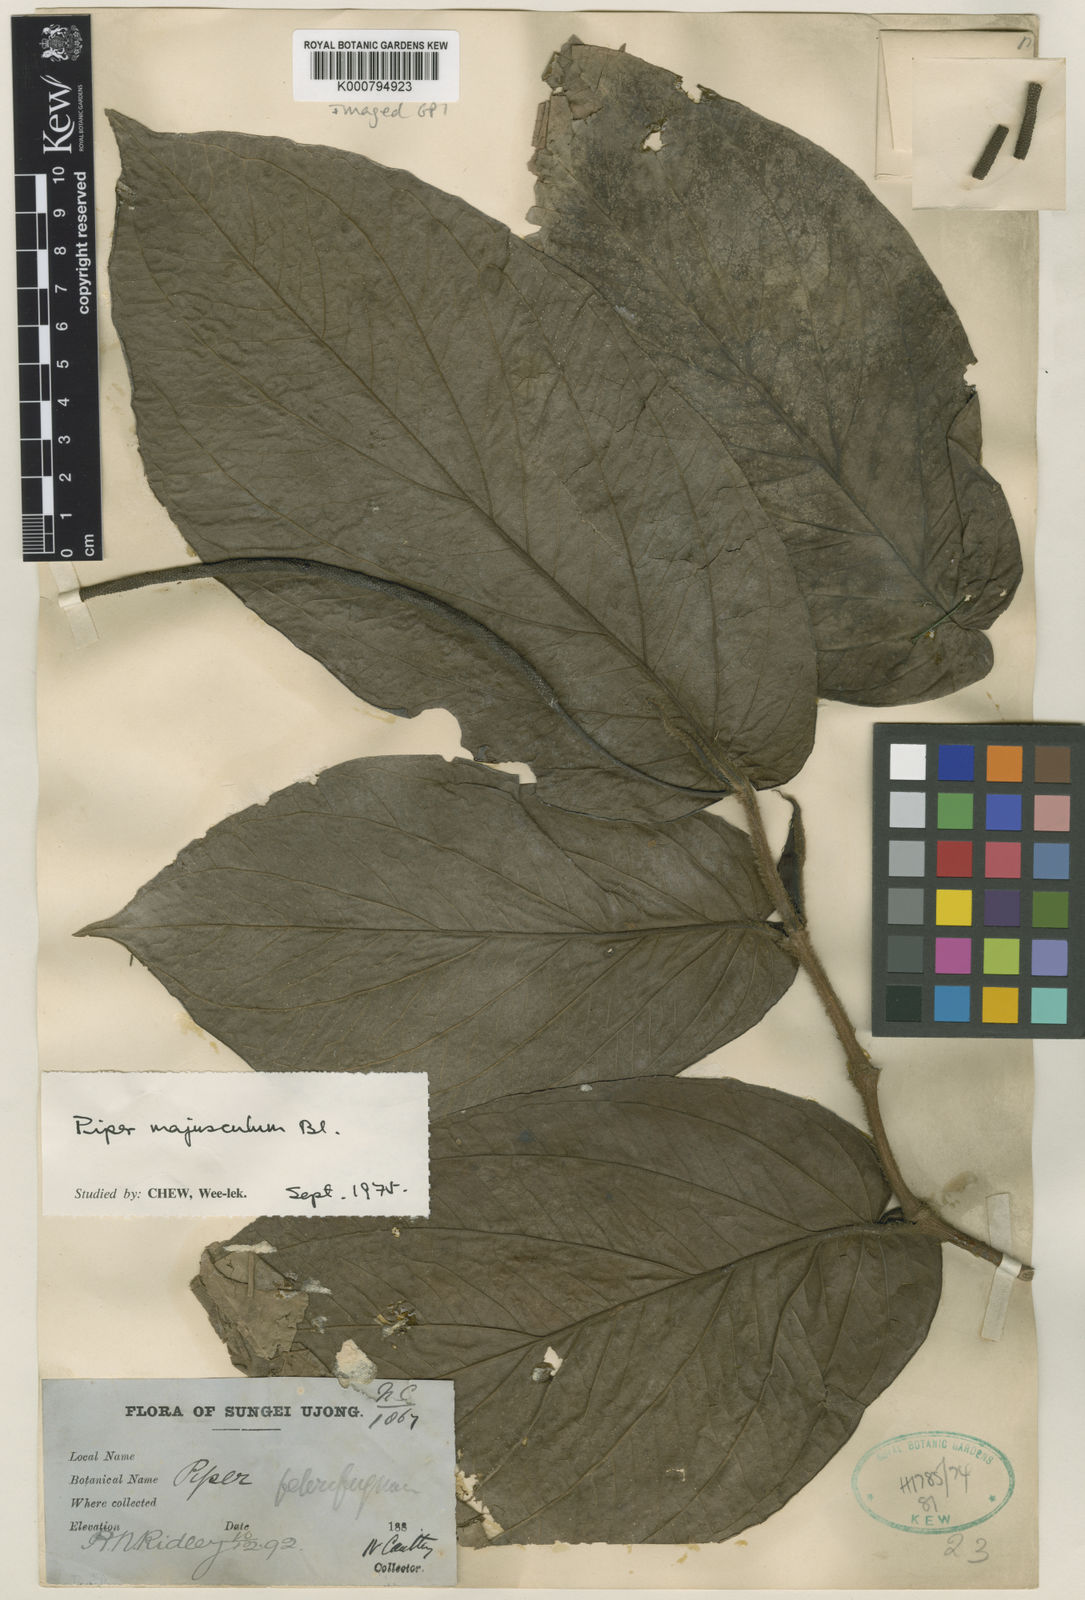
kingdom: Plantae
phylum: Tracheophyta
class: Magnoliopsida
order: Piperales
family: Piperaceae
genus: Piper
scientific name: Piper majusculum
